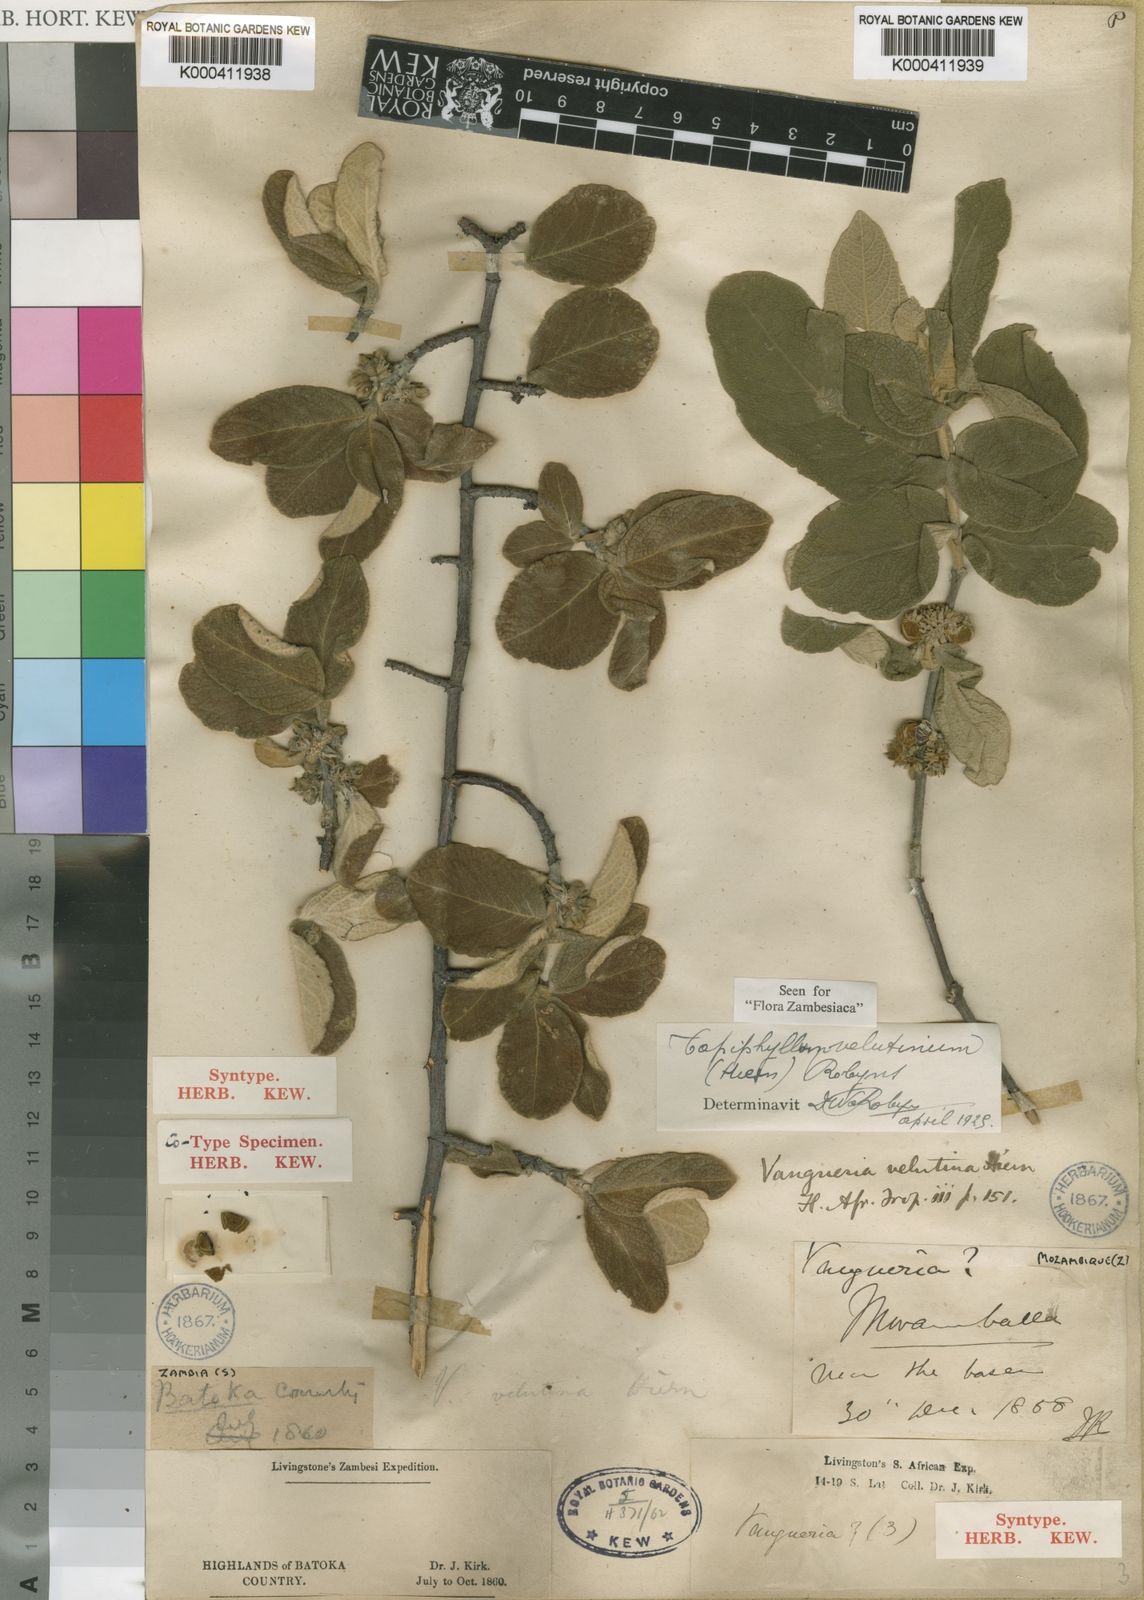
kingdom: Plantae
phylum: Tracheophyta
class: Magnoliopsida
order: Gentianales
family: Rubiaceae
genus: Vangueria
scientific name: Vangueria vestita
